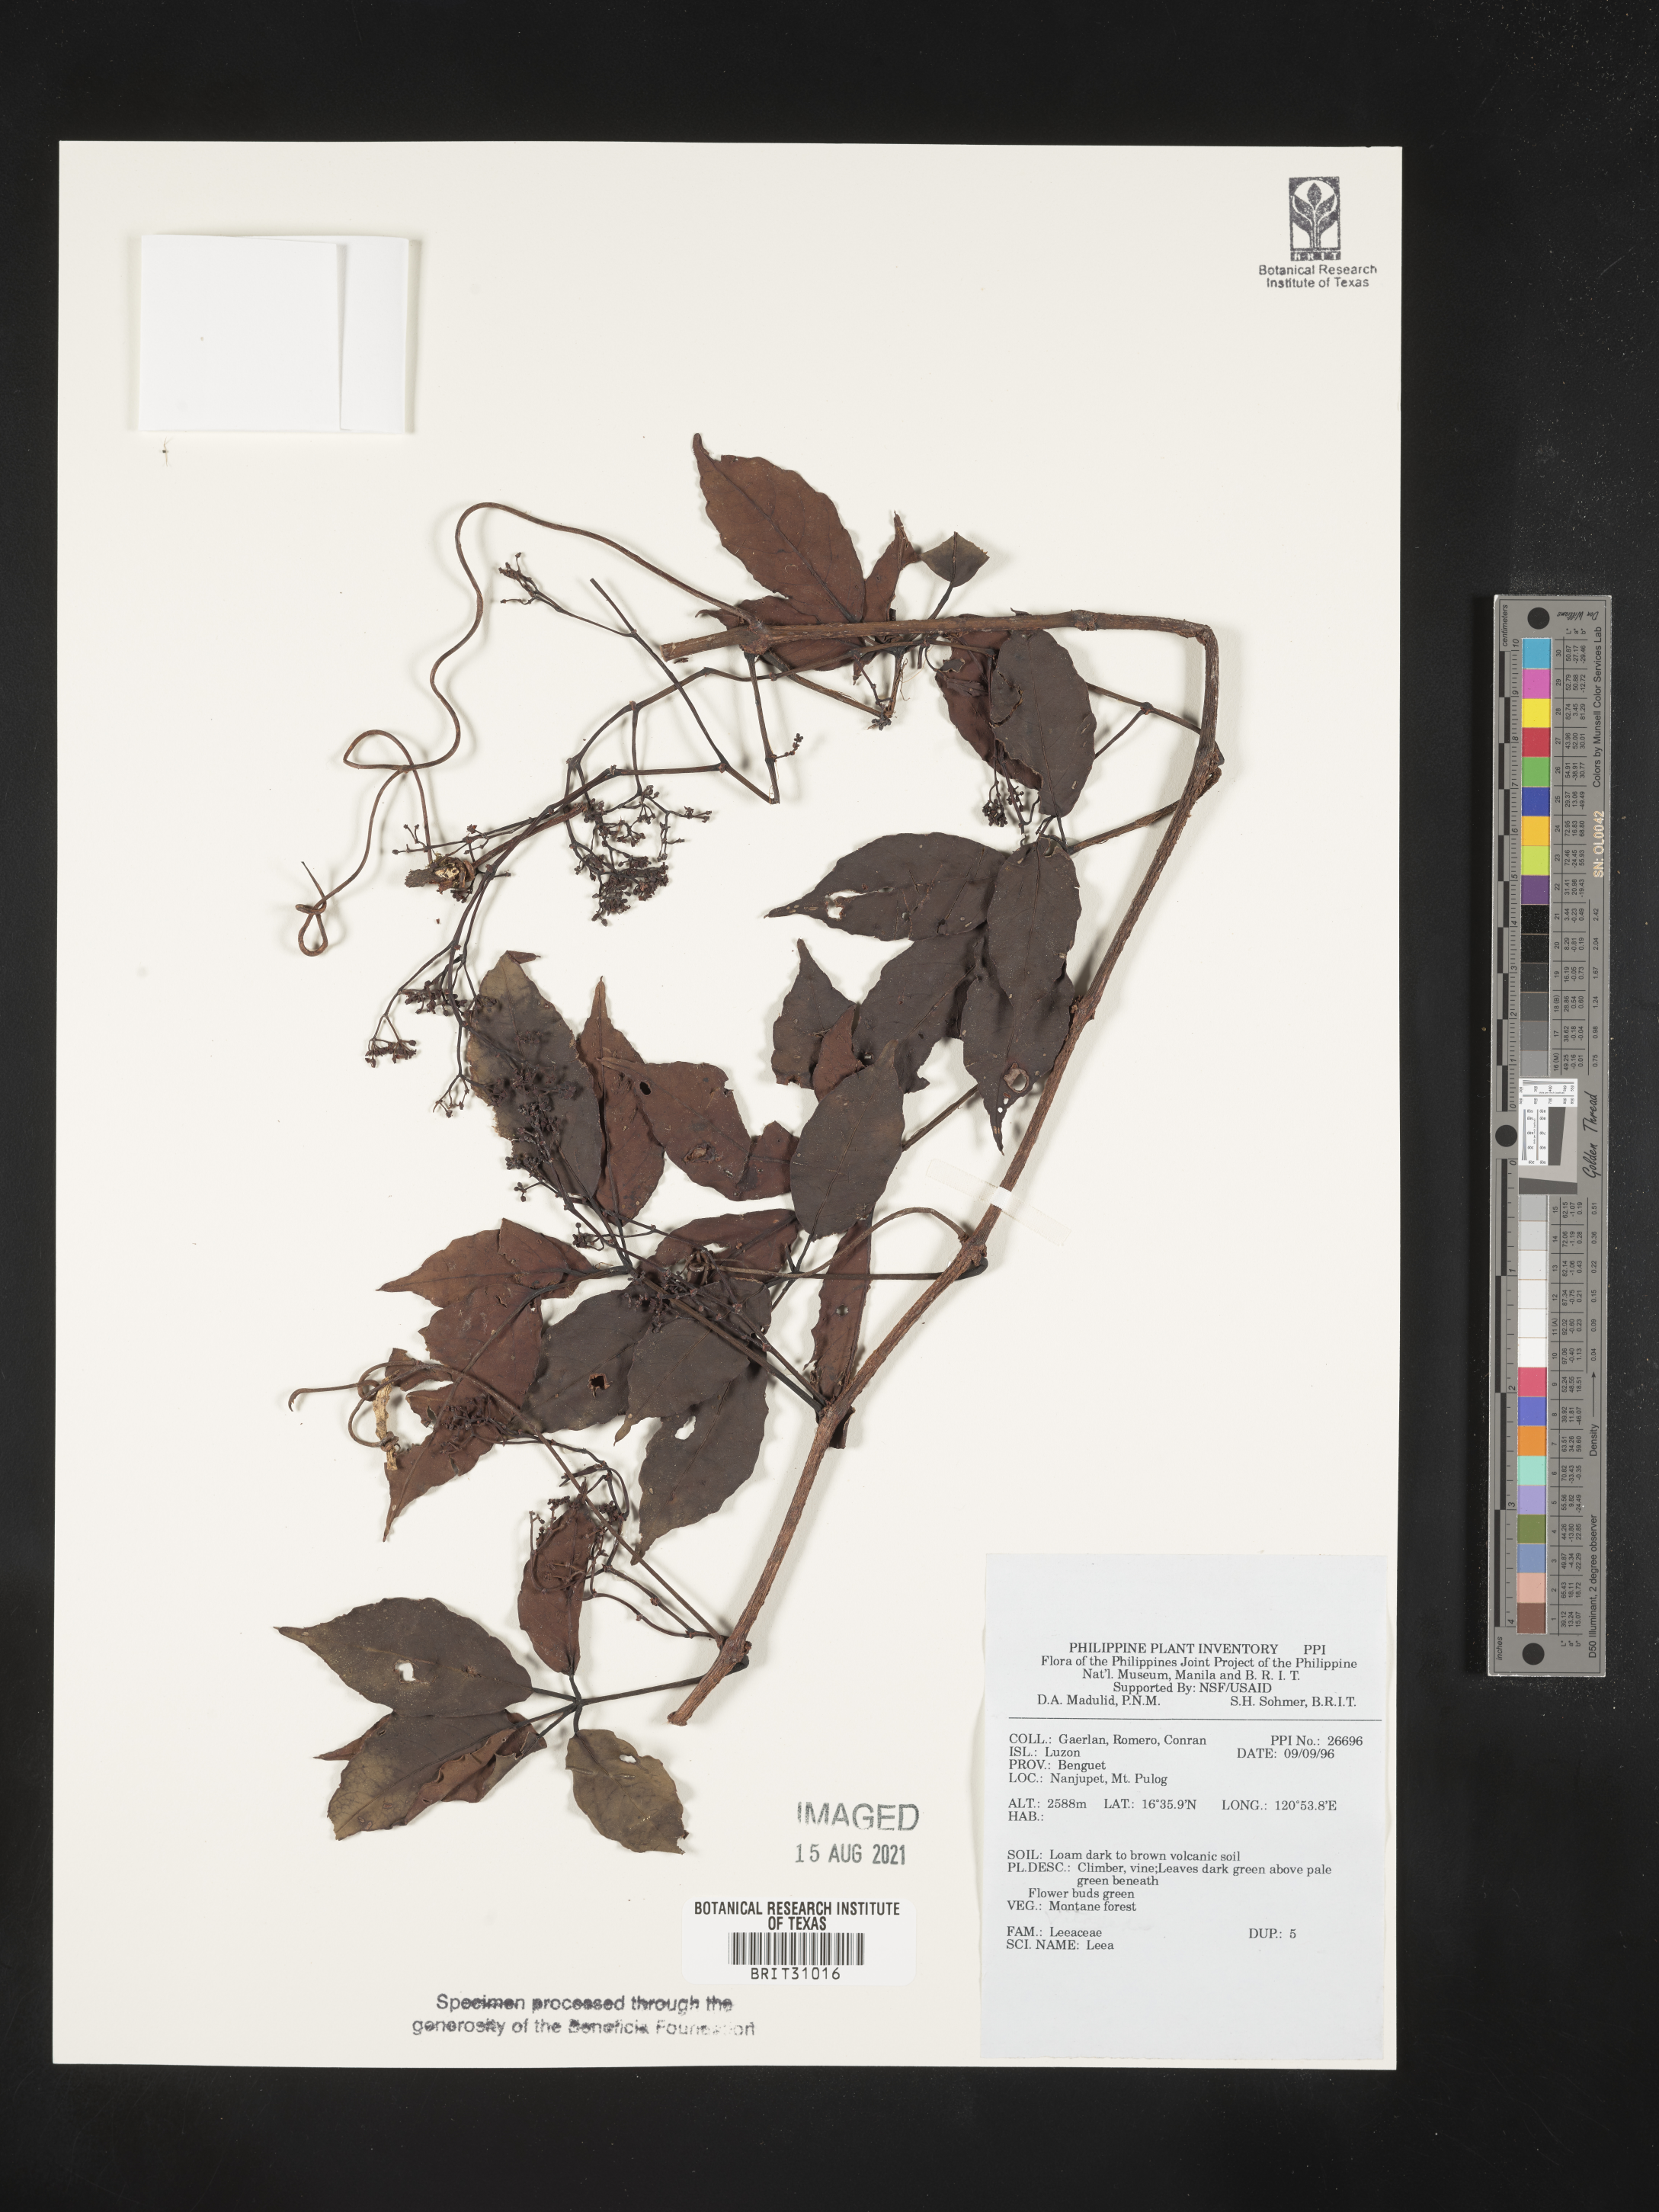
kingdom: Plantae
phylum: Tracheophyta
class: Magnoliopsida
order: Vitales
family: Vitaceae
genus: Leea
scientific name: Leea
